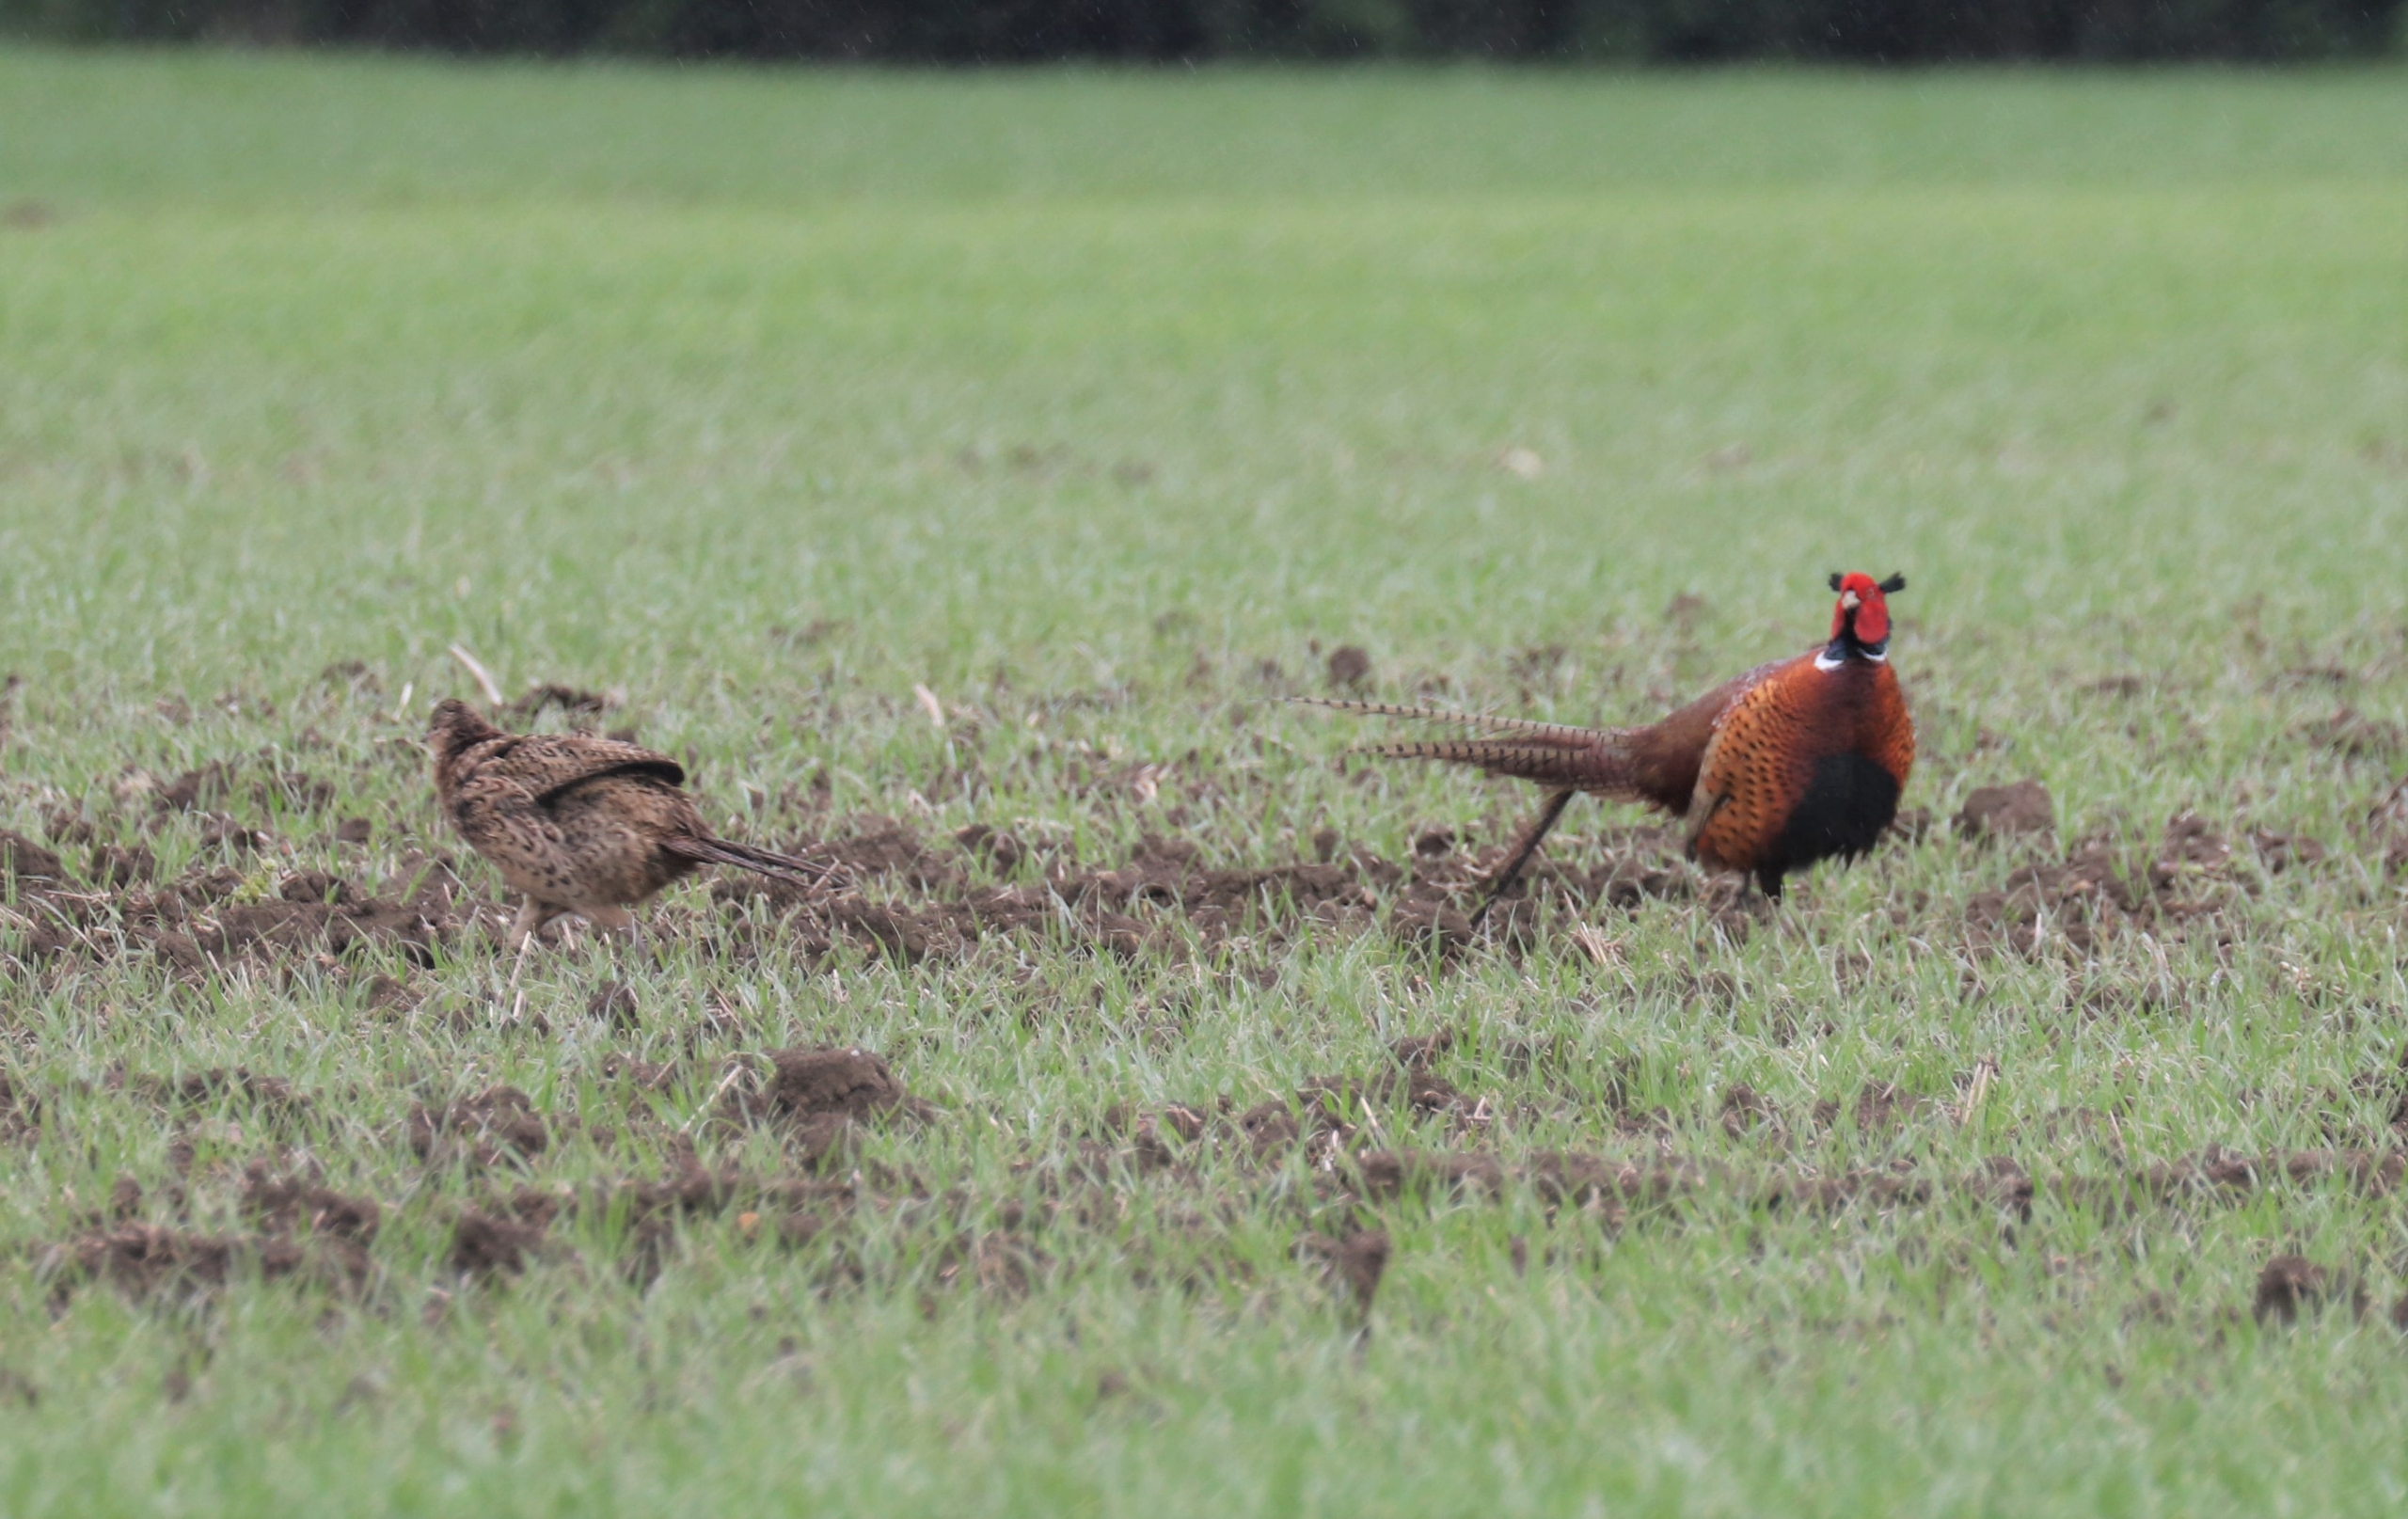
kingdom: Animalia
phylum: Chordata
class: Aves
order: Galliformes
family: Phasianidae
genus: Phasianus
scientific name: Phasianus colchicus
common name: Fasan
